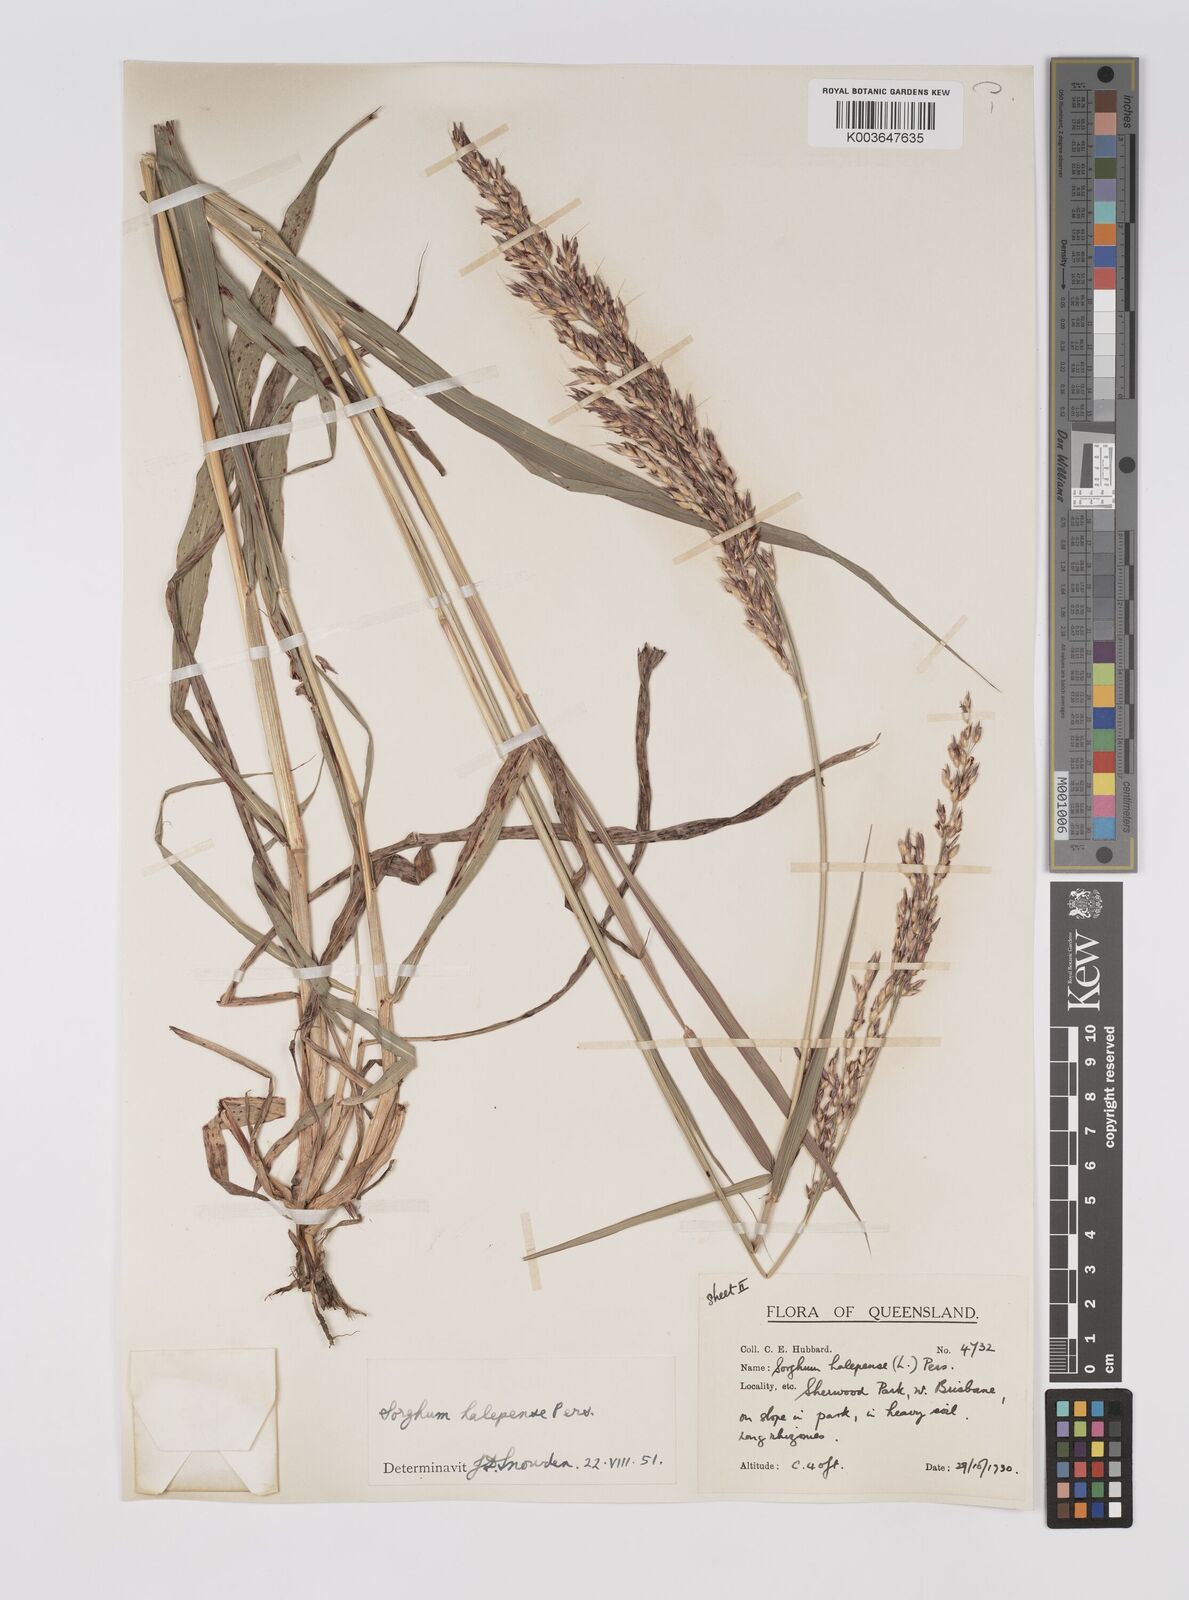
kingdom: Plantae
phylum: Tracheophyta
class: Liliopsida
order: Poales
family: Poaceae
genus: Sorghum
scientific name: Sorghum halepense
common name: Johnson-grass
